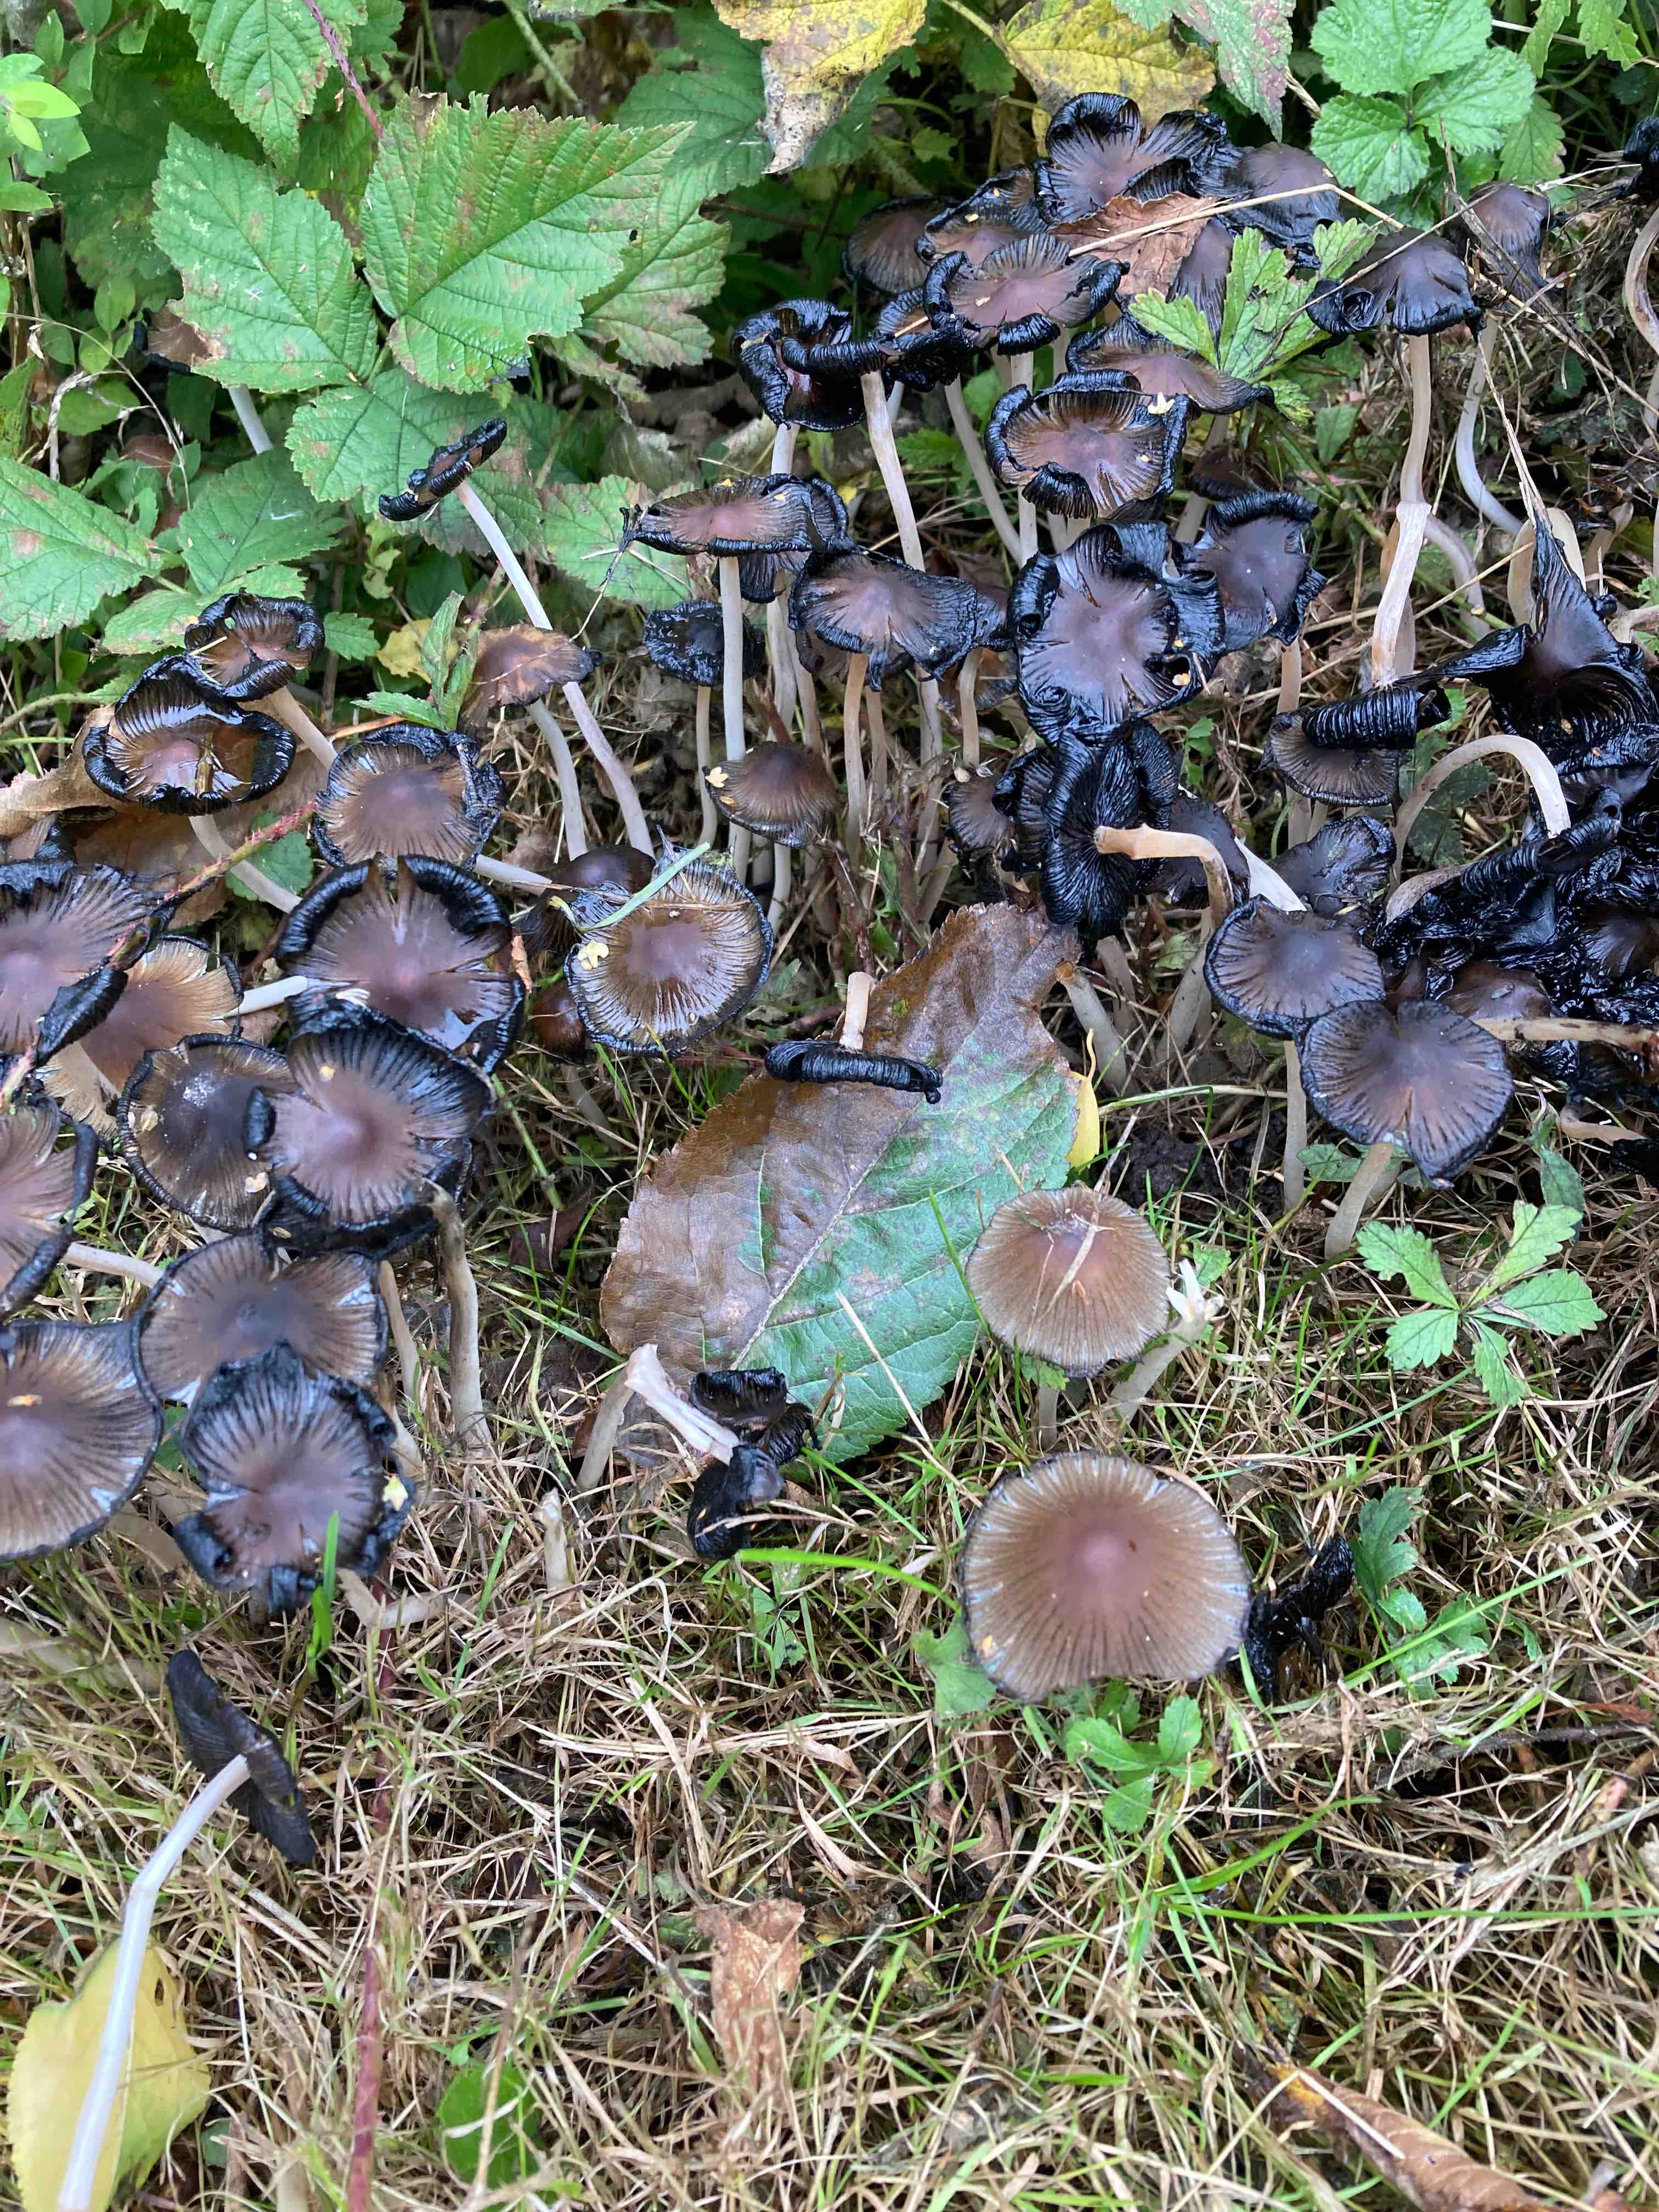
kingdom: Fungi
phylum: Basidiomycota
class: Agaricomycetes
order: Agaricales
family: Psathyrellaceae
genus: Coprinellus
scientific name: Coprinellus
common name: blækhat
